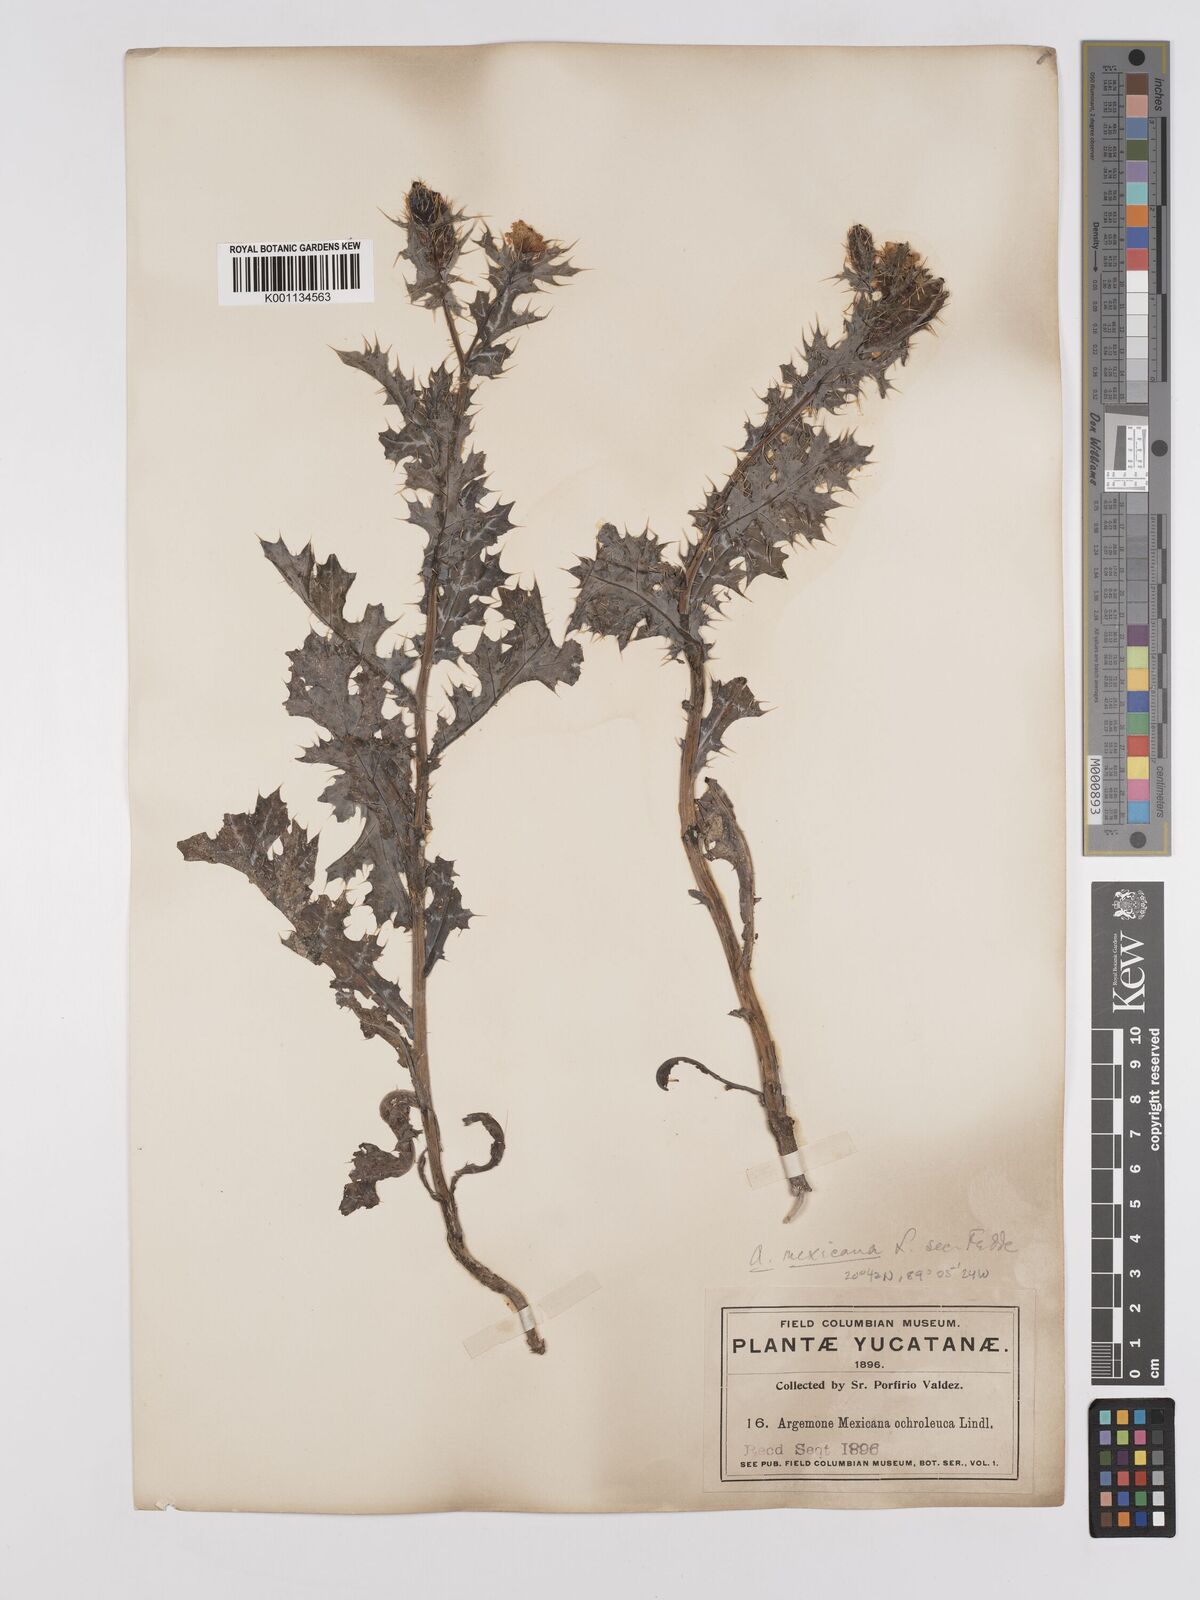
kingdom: Plantae
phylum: Tracheophyta
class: Magnoliopsida
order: Ranunculales
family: Papaveraceae
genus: Argemone
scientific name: Argemone mexicana
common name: Mexican poppy
